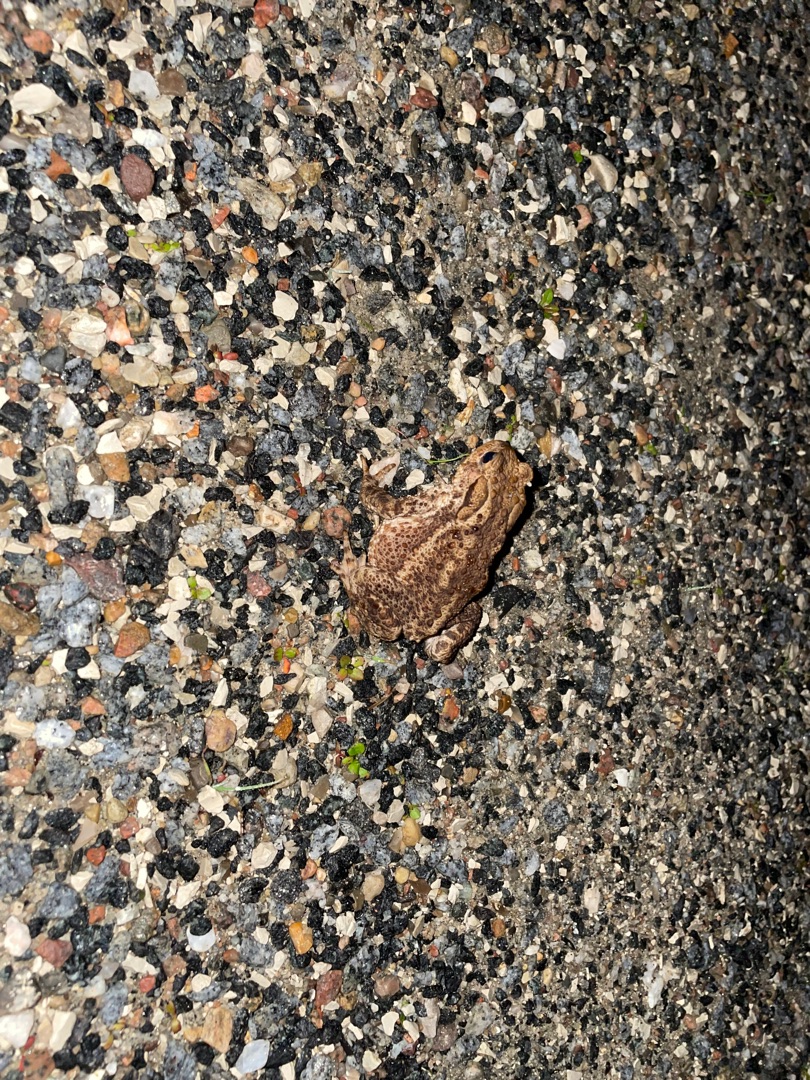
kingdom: Animalia
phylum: Chordata
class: Amphibia
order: Anura
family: Bufonidae
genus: Bufo
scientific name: Bufo bufo
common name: Skrubtudse
